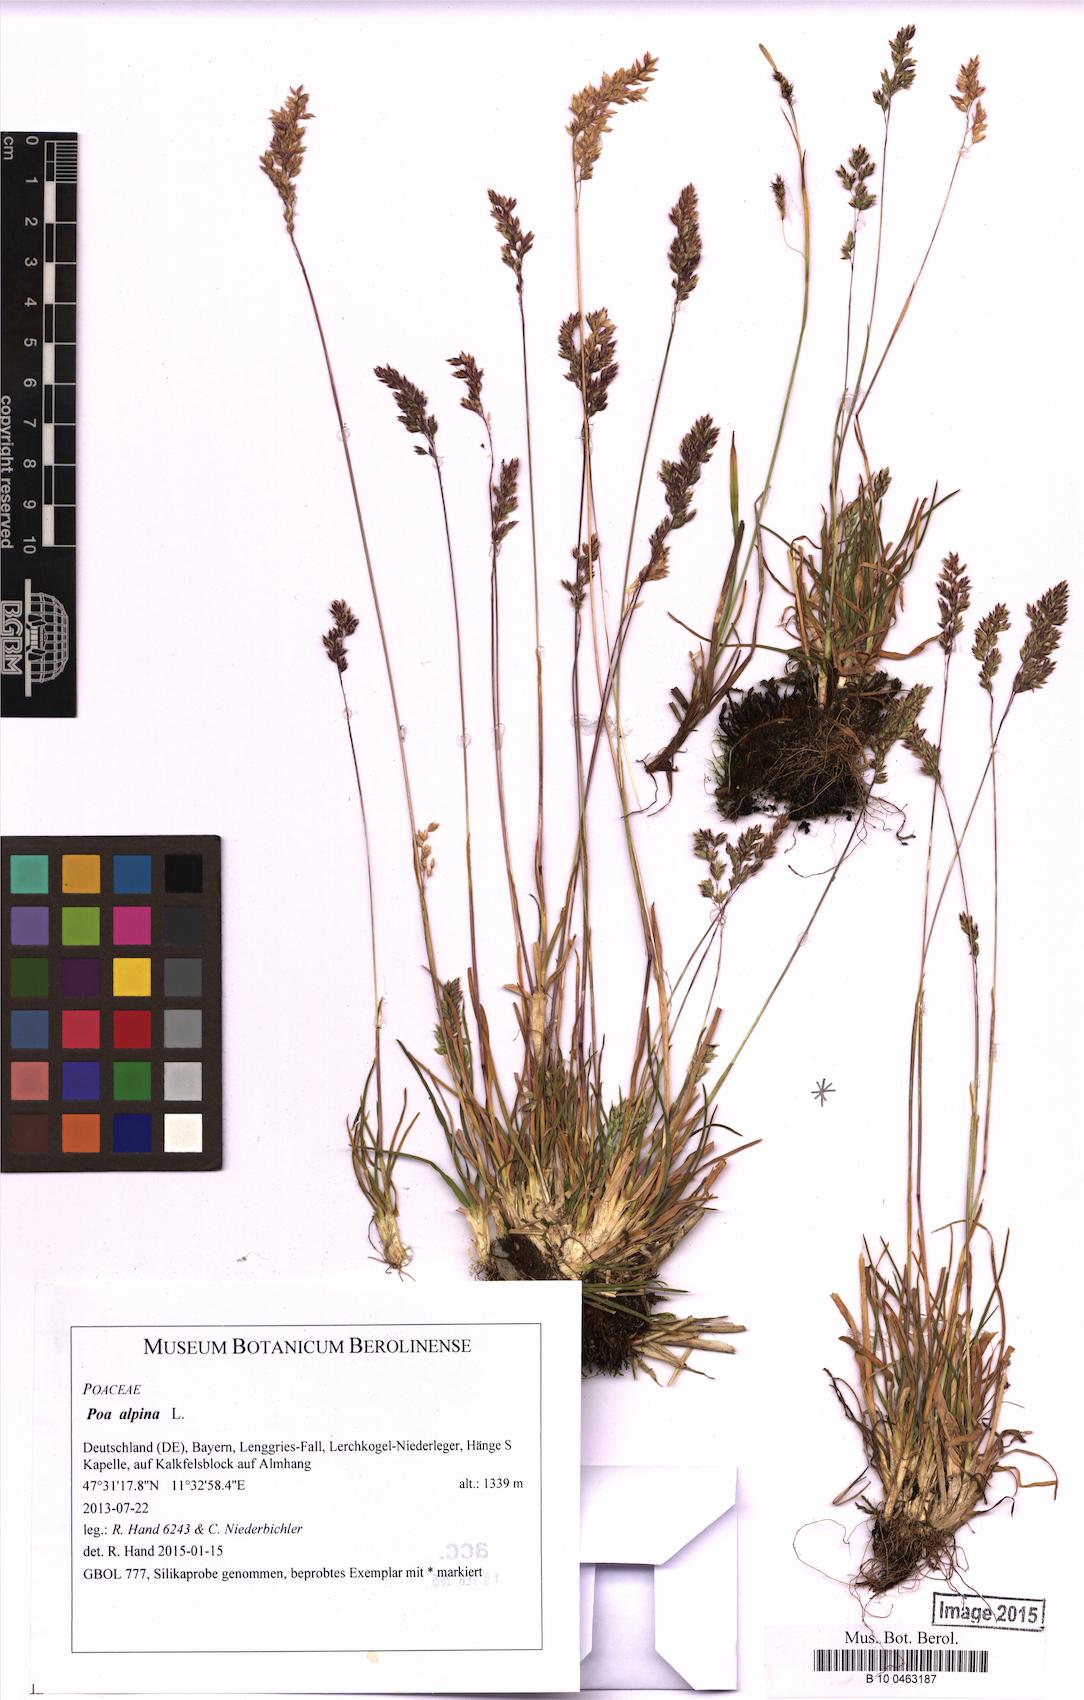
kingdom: Plantae
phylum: Tracheophyta
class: Liliopsida
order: Poales
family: Poaceae
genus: Poa
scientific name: Poa alpina
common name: Alpine bluegrass
